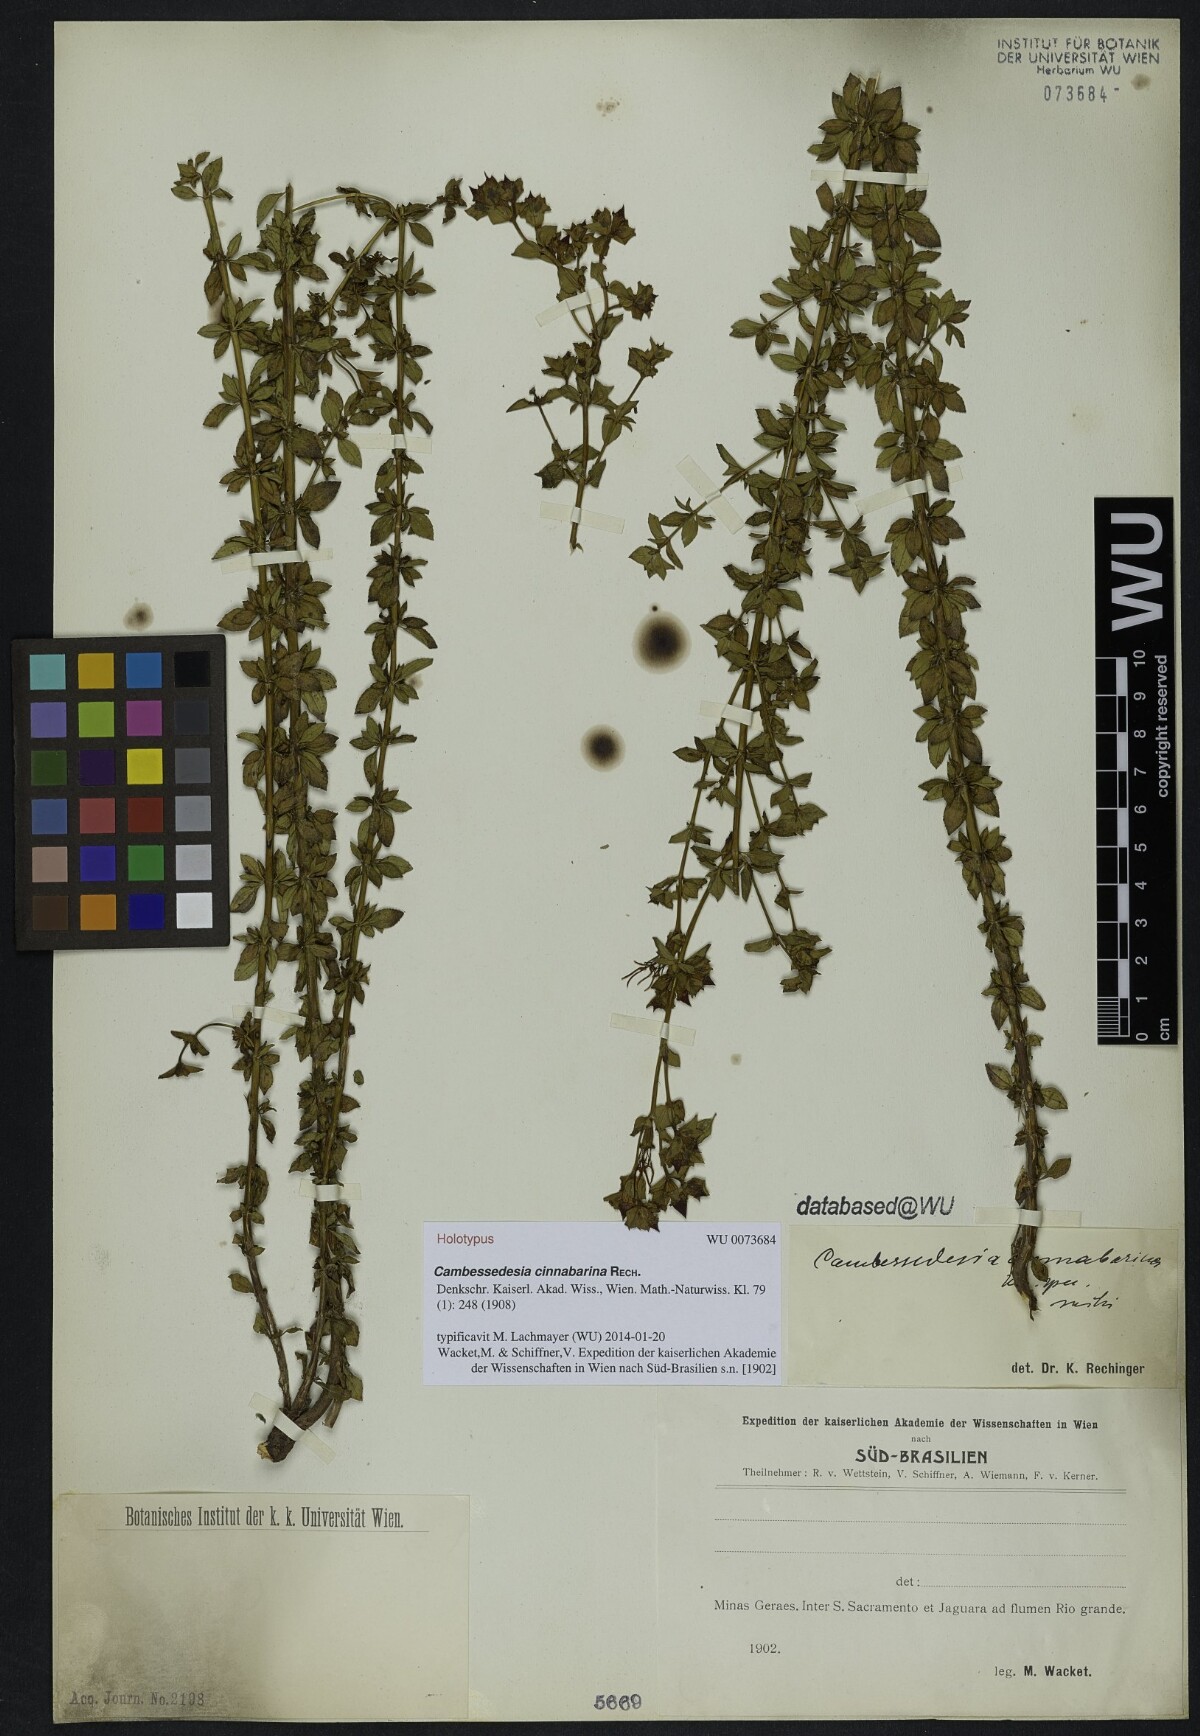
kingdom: Plantae
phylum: Tracheophyta
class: Magnoliopsida
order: Myrtales
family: Melastomataceae
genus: Cambessedesia
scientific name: Cambessedesia hilariana
